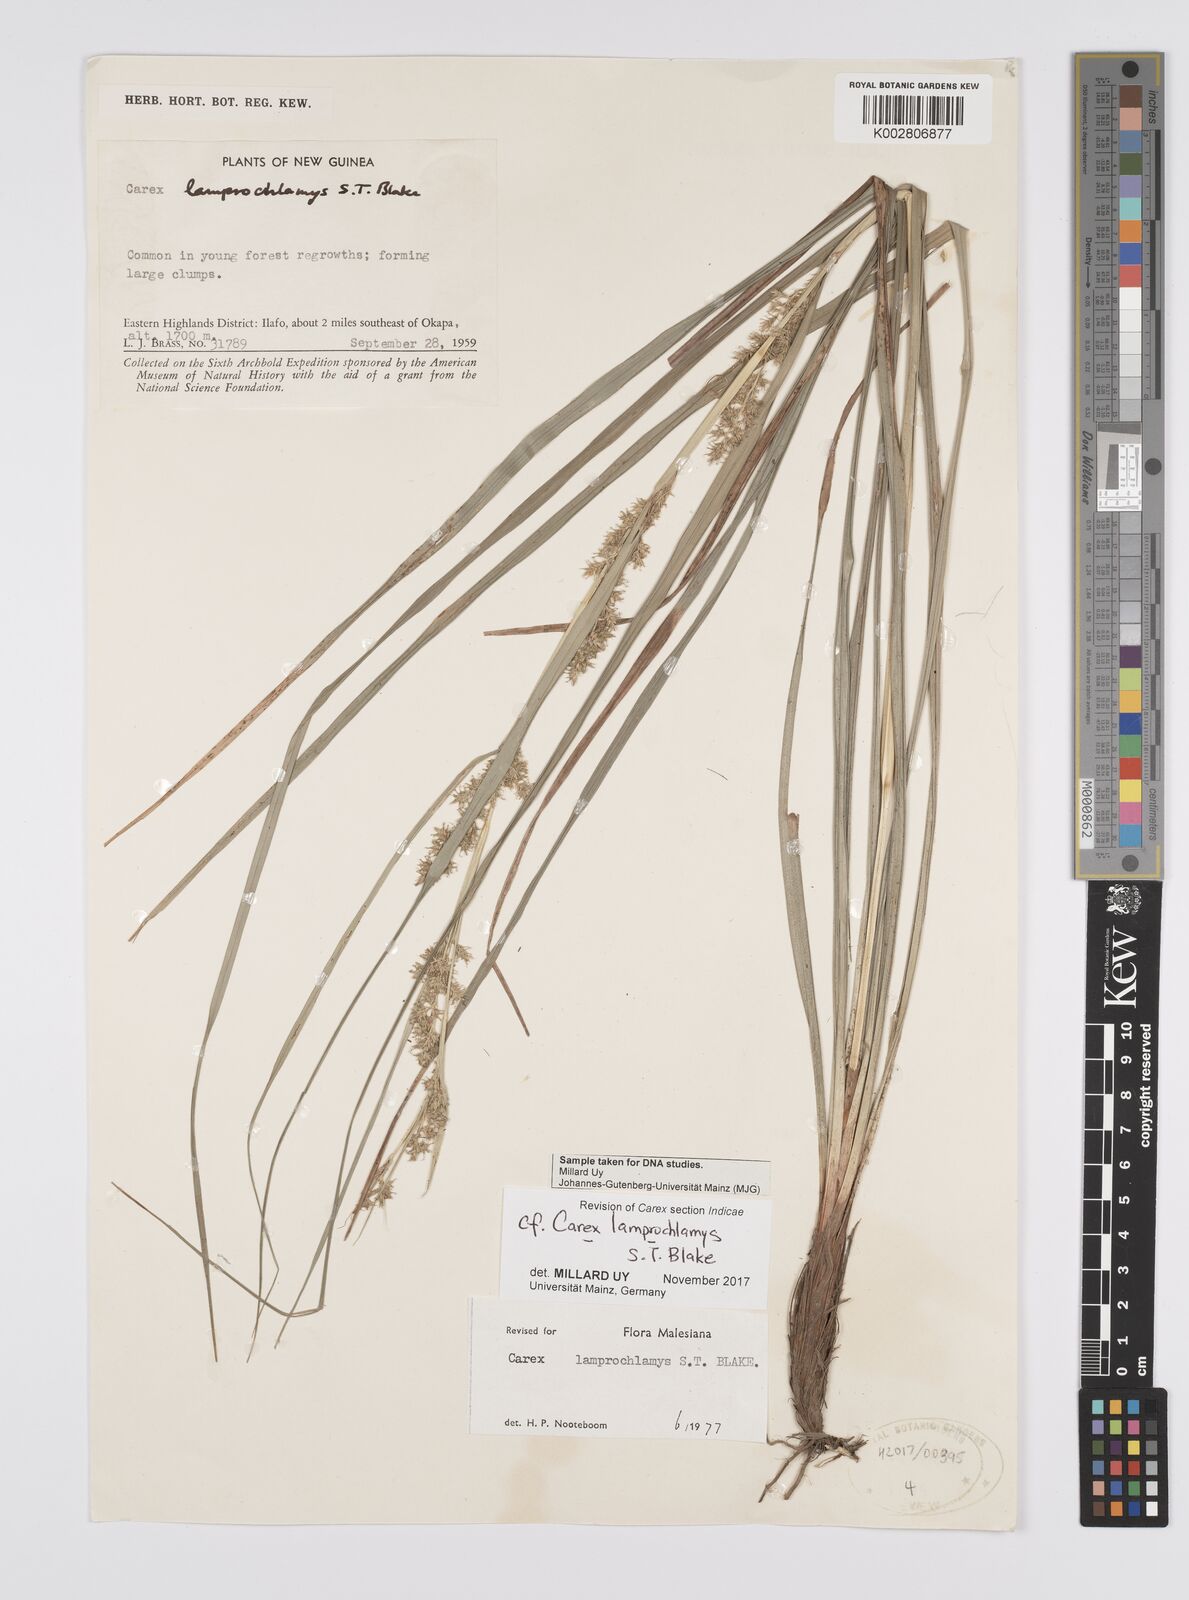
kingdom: Plantae
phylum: Tracheophyta
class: Liliopsida
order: Poales
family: Cyperaceae
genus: Carex
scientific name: Carex lamprochlamys
